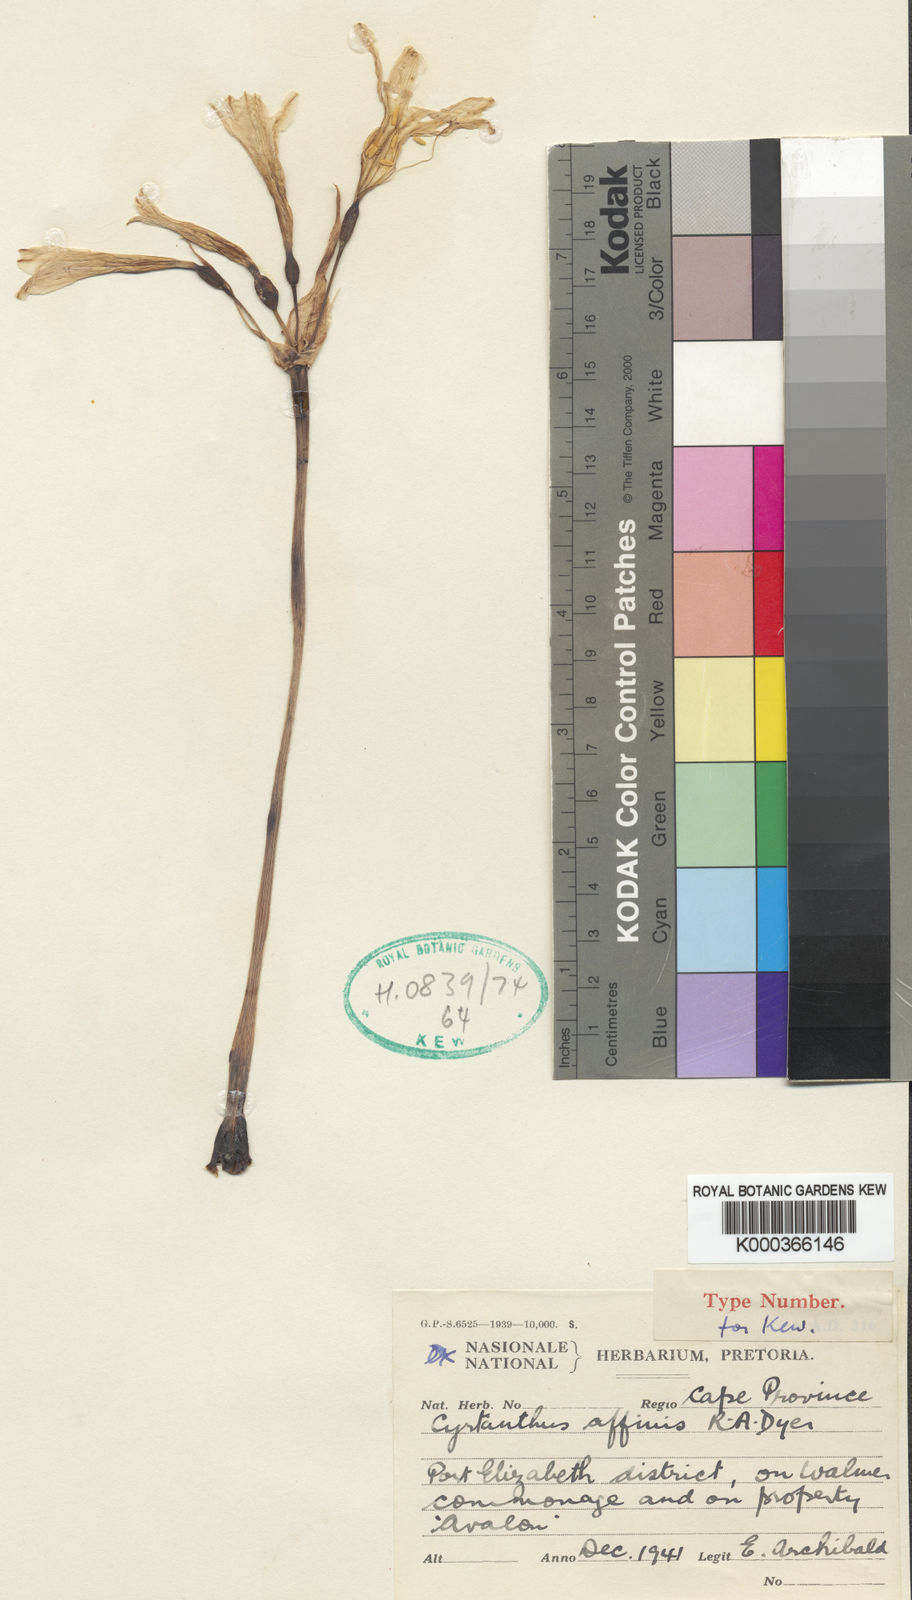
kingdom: Plantae
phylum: Tracheophyta
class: Liliopsida
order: Asparagales
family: Amaryllidaceae
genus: Cyrtanthus
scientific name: Cyrtanthus loddigesianus
